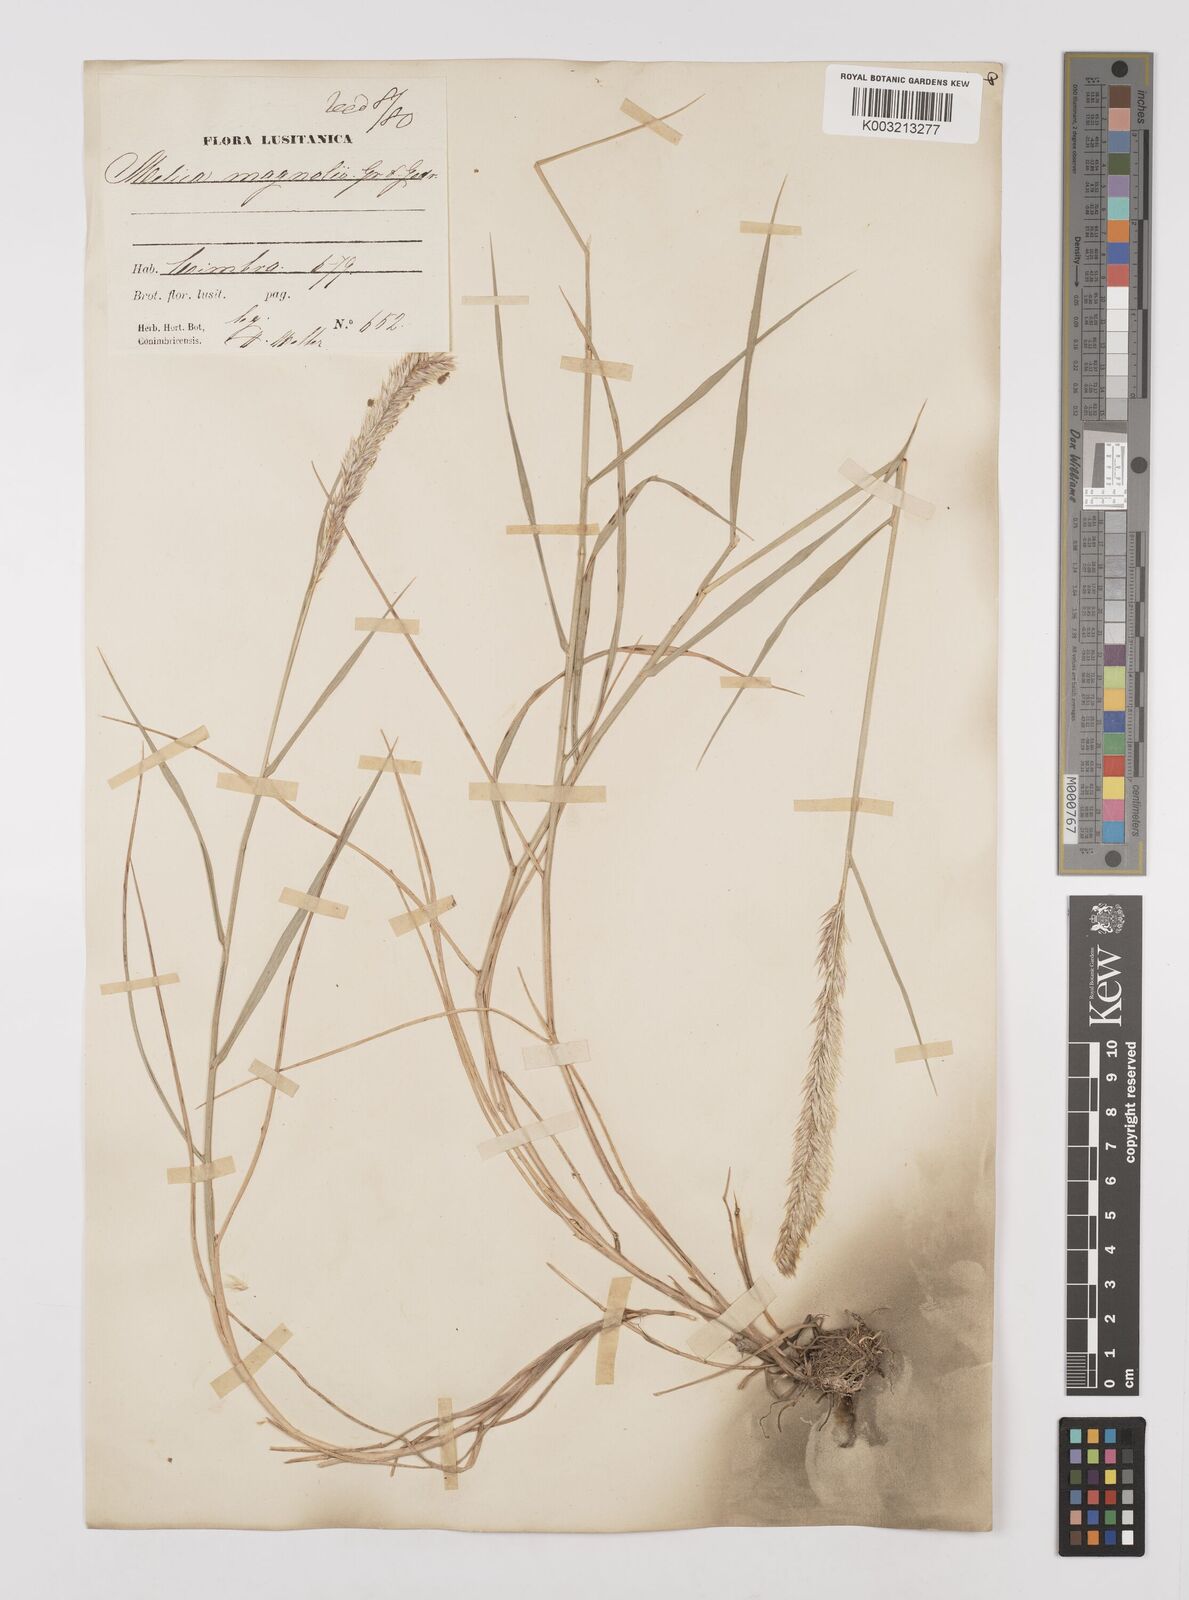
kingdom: Plantae
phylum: Tracheophyta
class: Liliopsida
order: Poales
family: Poaceae
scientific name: Poaceae
